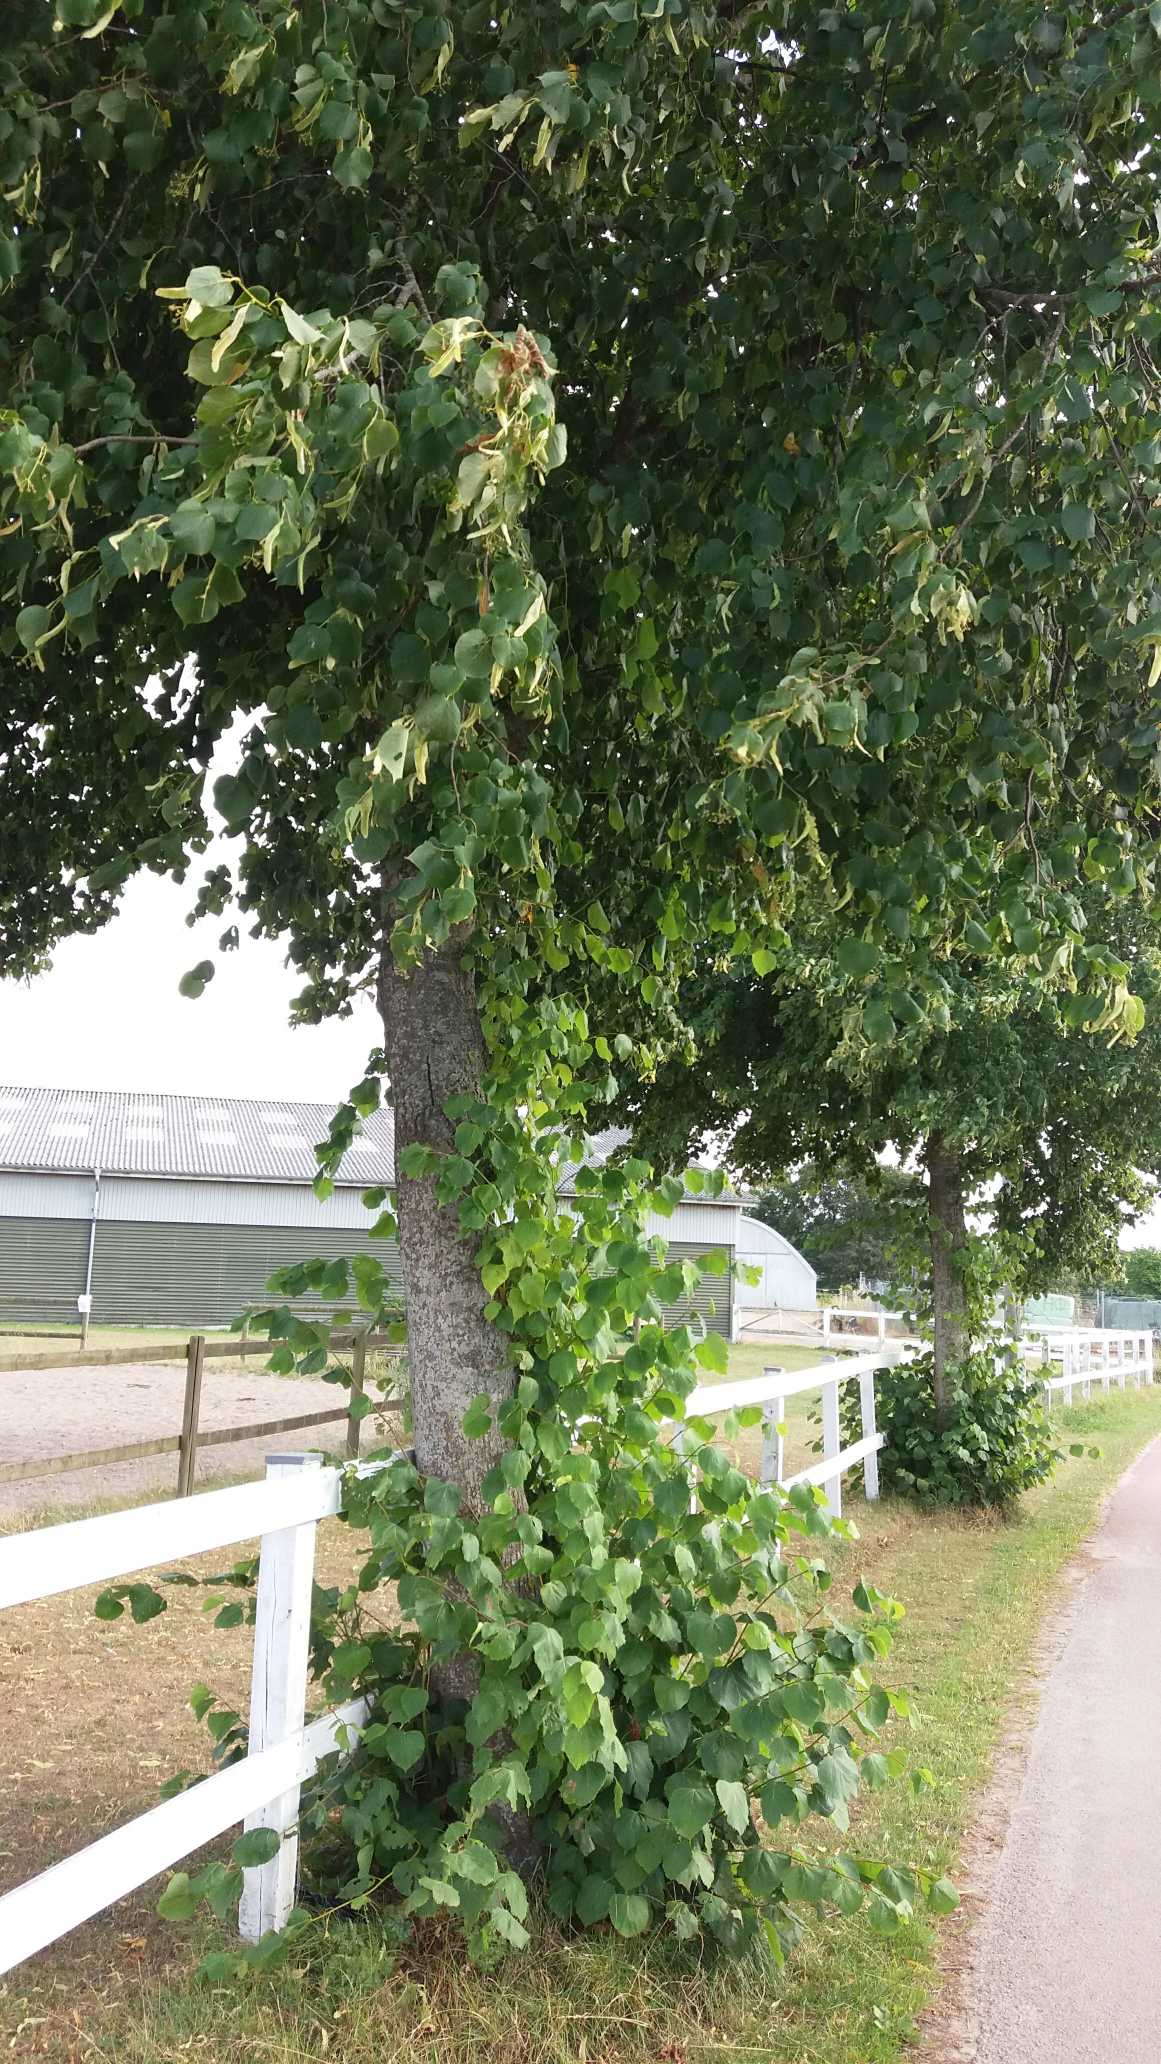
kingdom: Plantae
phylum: Tracheophyta
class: Magnoliopsida
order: Malvales
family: Malvaceae
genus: Tilia
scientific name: Tilia
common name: Lindeslægten
